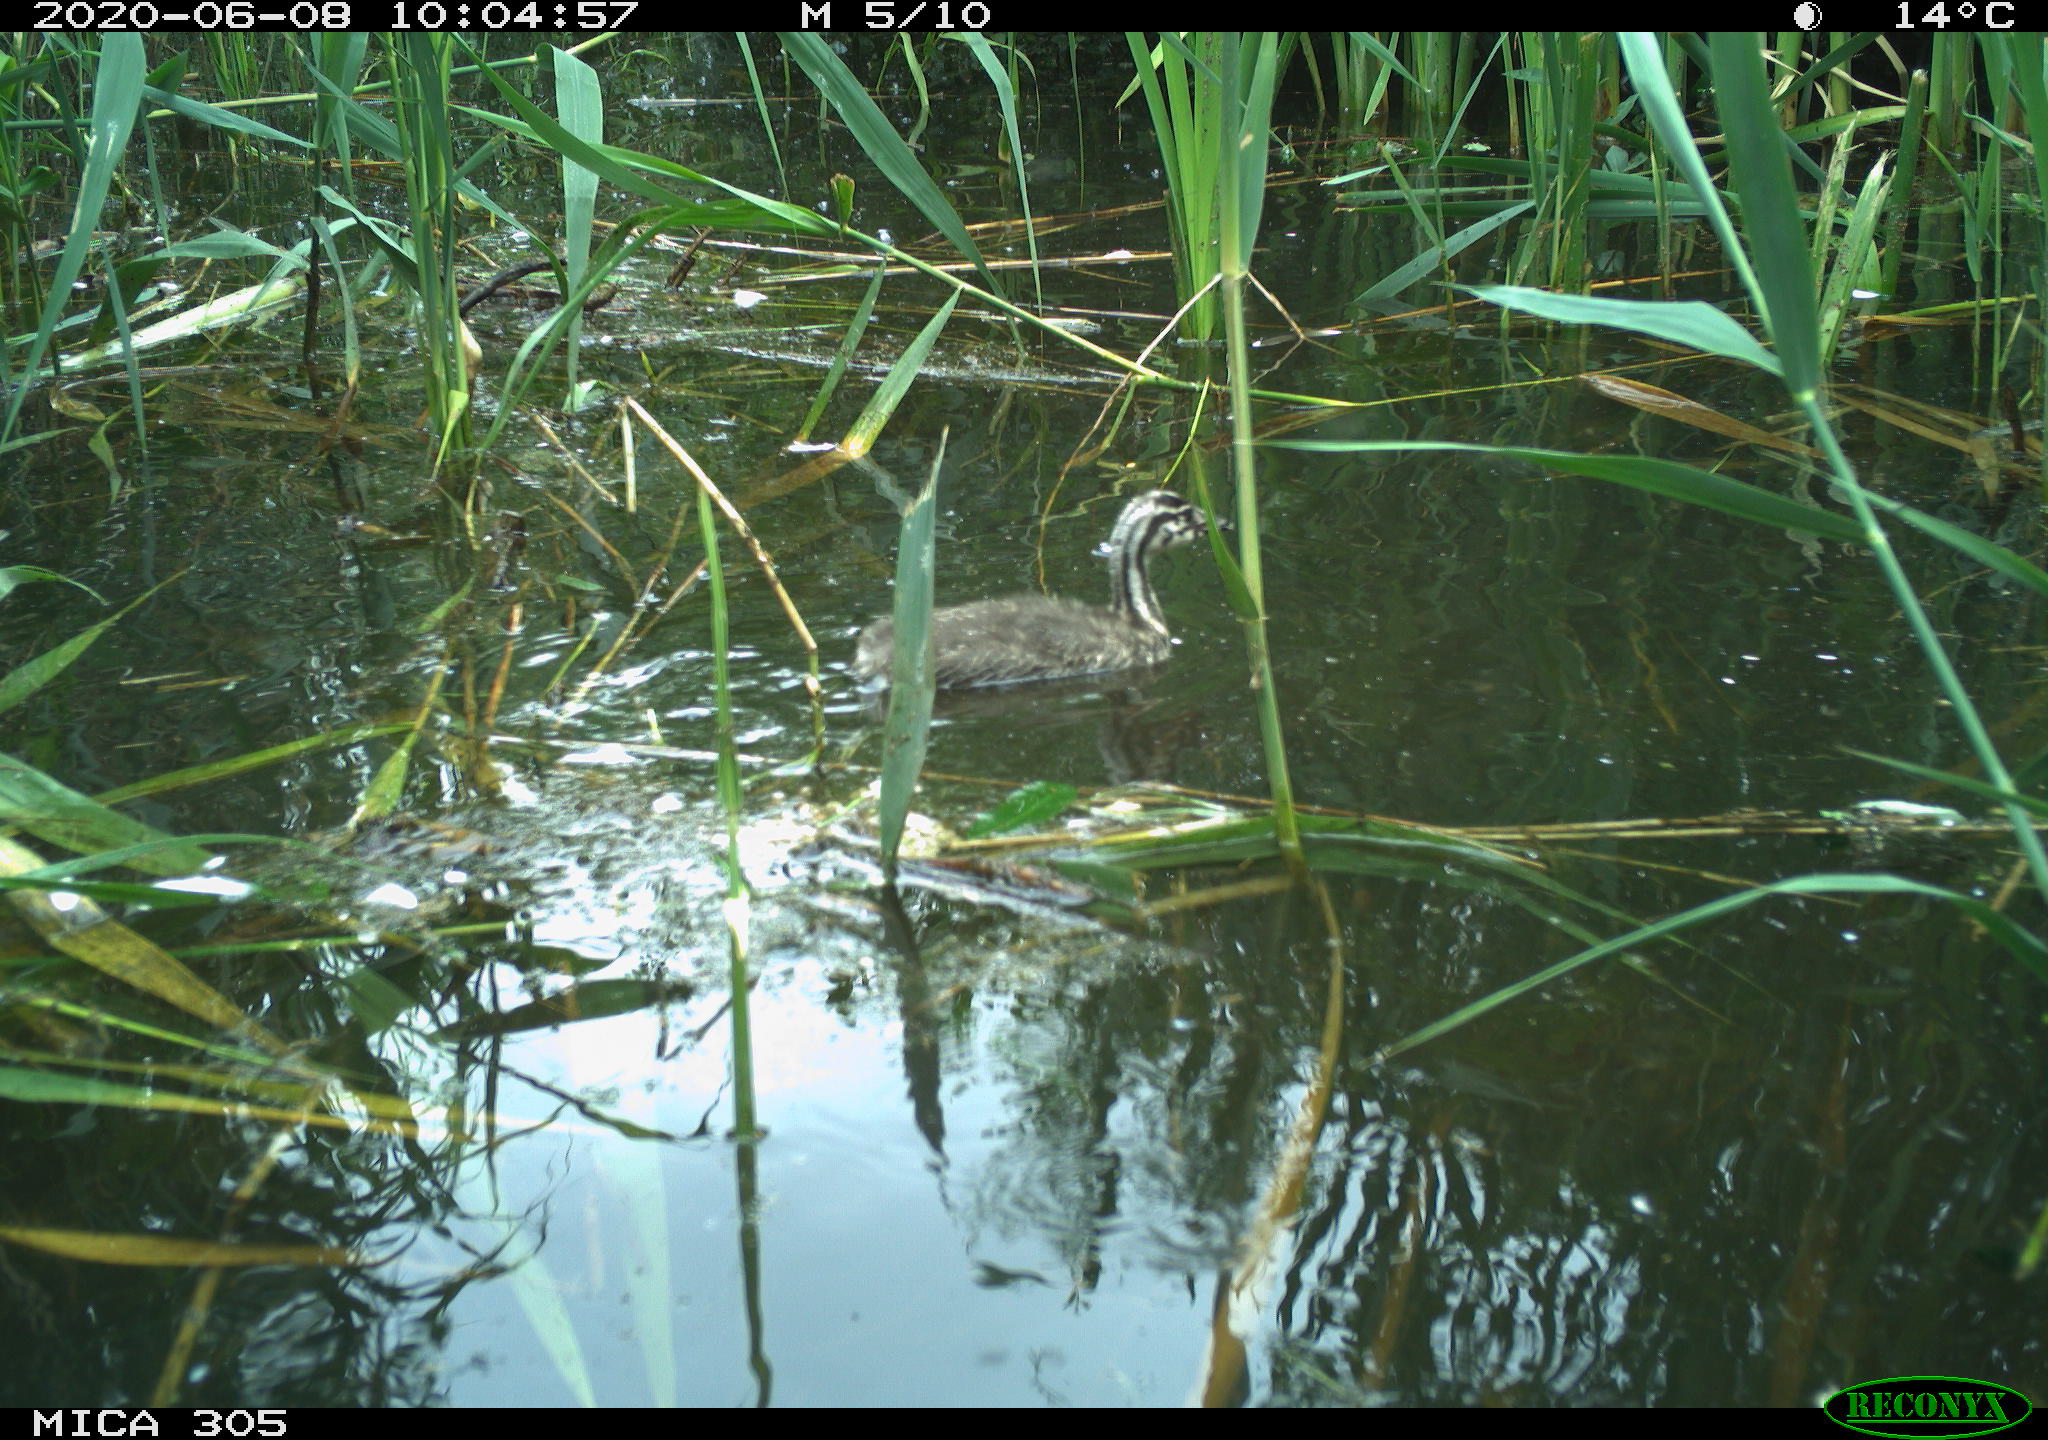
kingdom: Animalia
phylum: Chordata
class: Aves
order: Podicipediformes
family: Podicipedidae
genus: Podiceps
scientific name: Podiceps cristatus
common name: Great crested grebe
